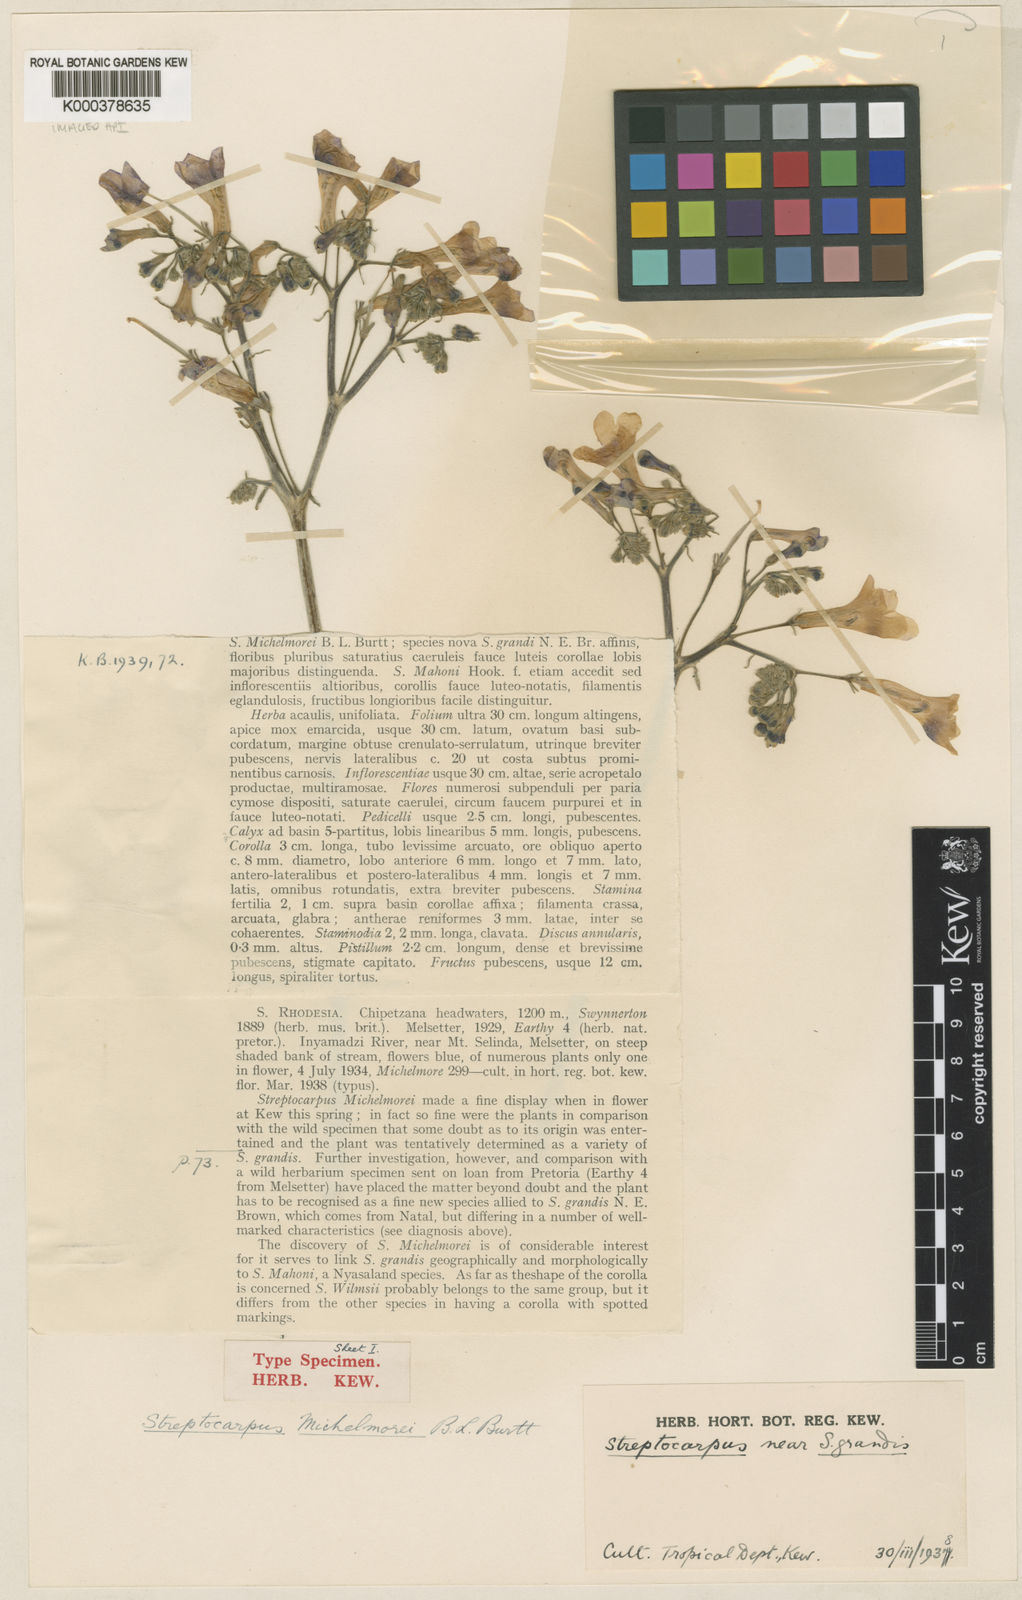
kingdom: Plantae
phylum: Tracheophyta
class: Magnoliopsida
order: Lamiales
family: Gesneriaceae
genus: Streptocarpus
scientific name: Streptocarpus michelmorei
